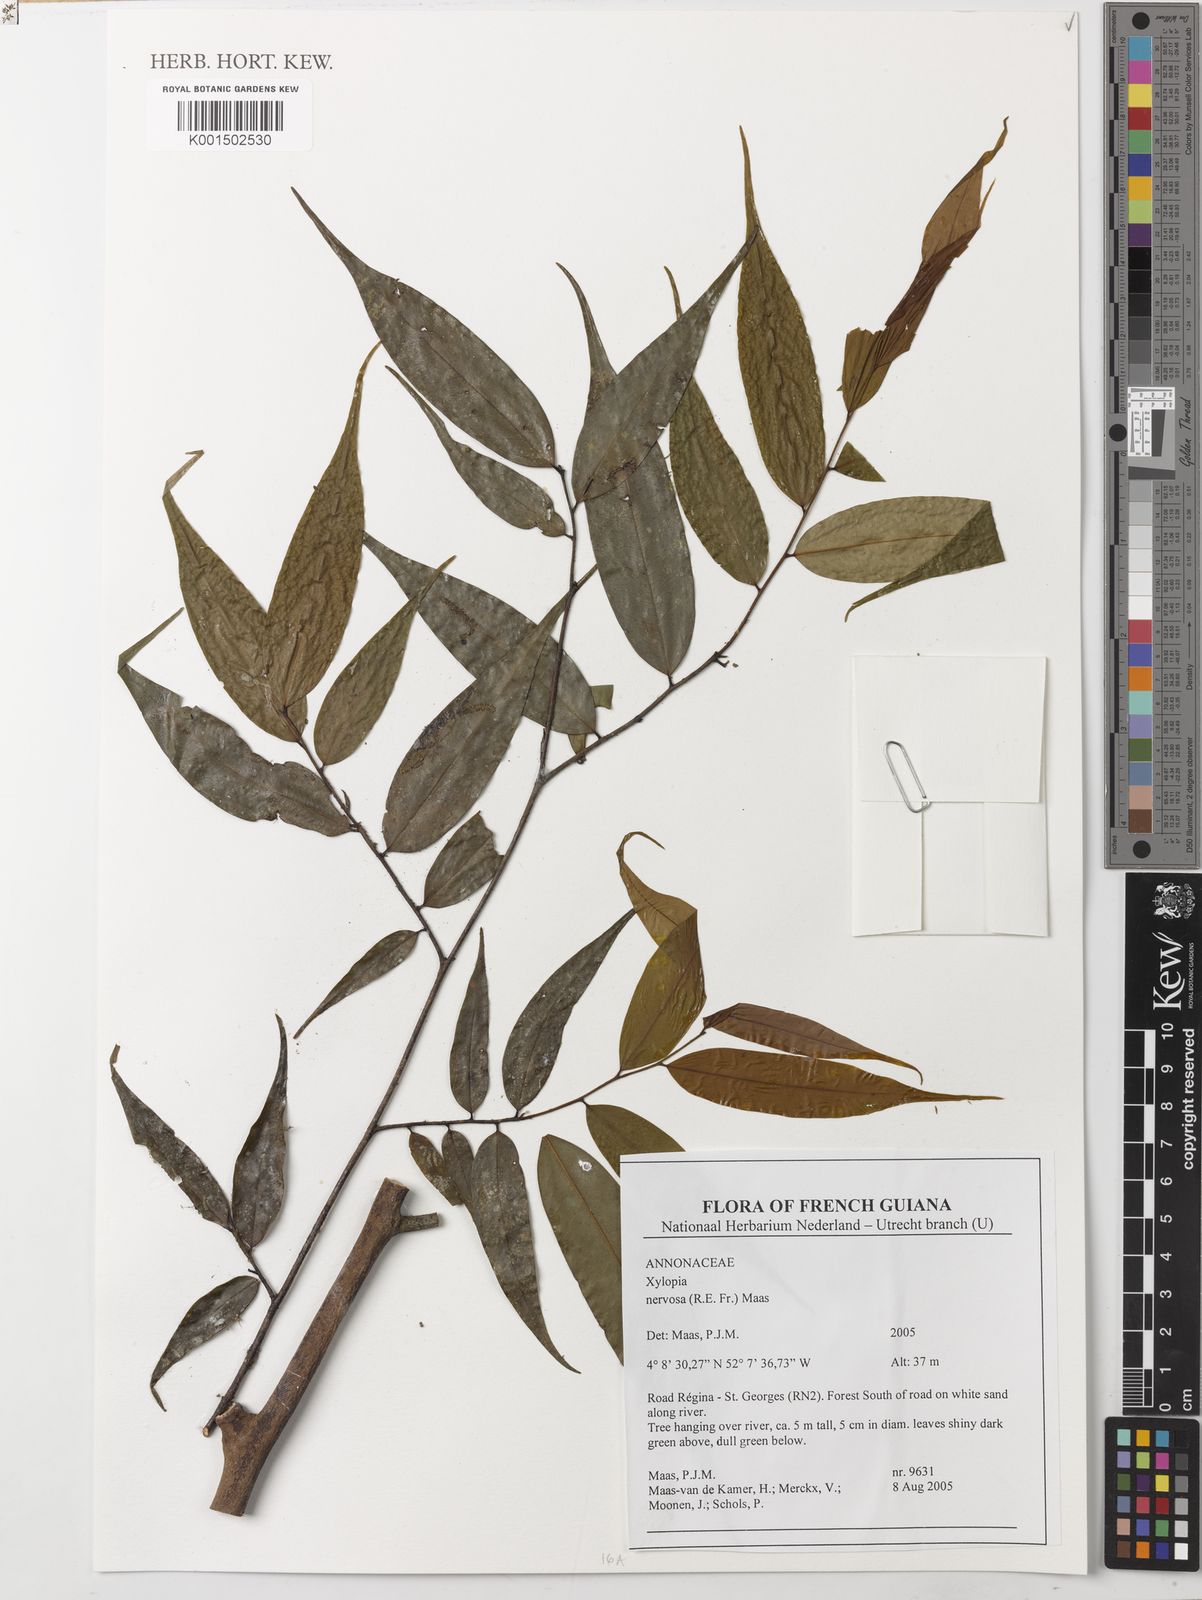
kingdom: Plantae
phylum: Tracheophyta
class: Magnoliopsida
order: Magnoliales
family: Annonaceae
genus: Xylopia
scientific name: Xylopia nervosa
